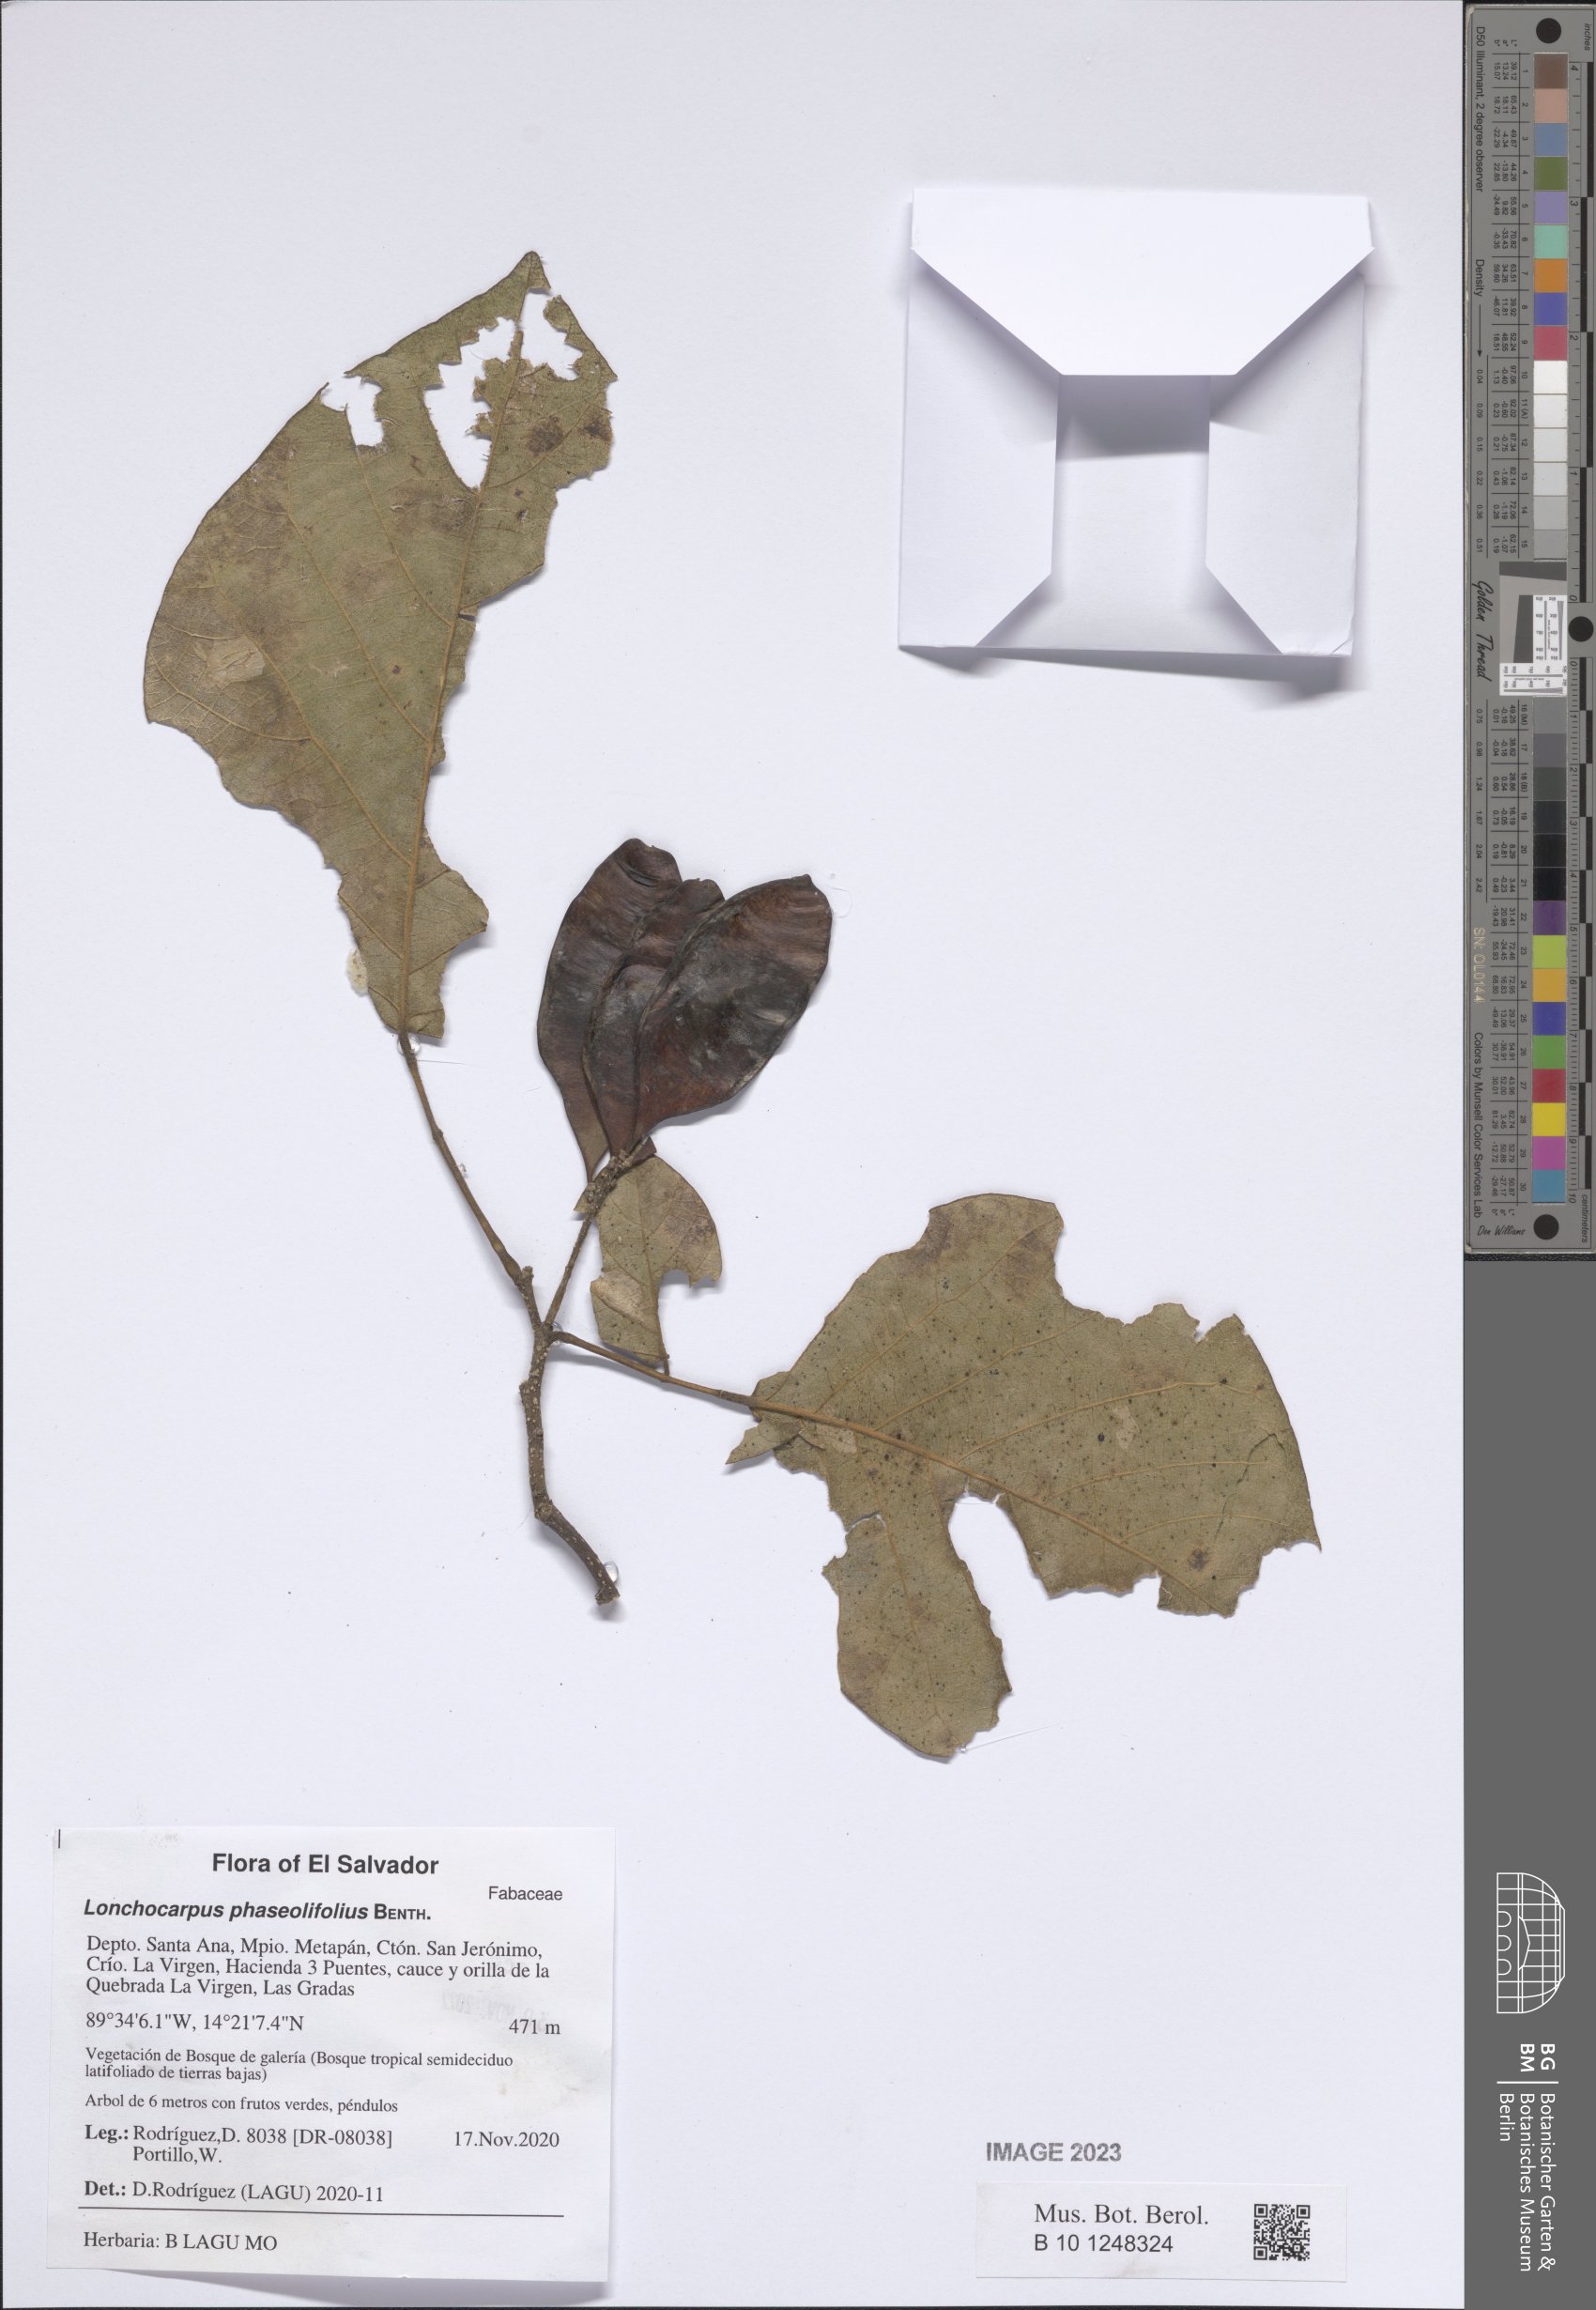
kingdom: Plantae
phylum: Tracheophyta
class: Magnoliopsida
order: Fabales
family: Fabaceae
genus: Lonchocarpus
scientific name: Lonchocarpus phaseolifolius
